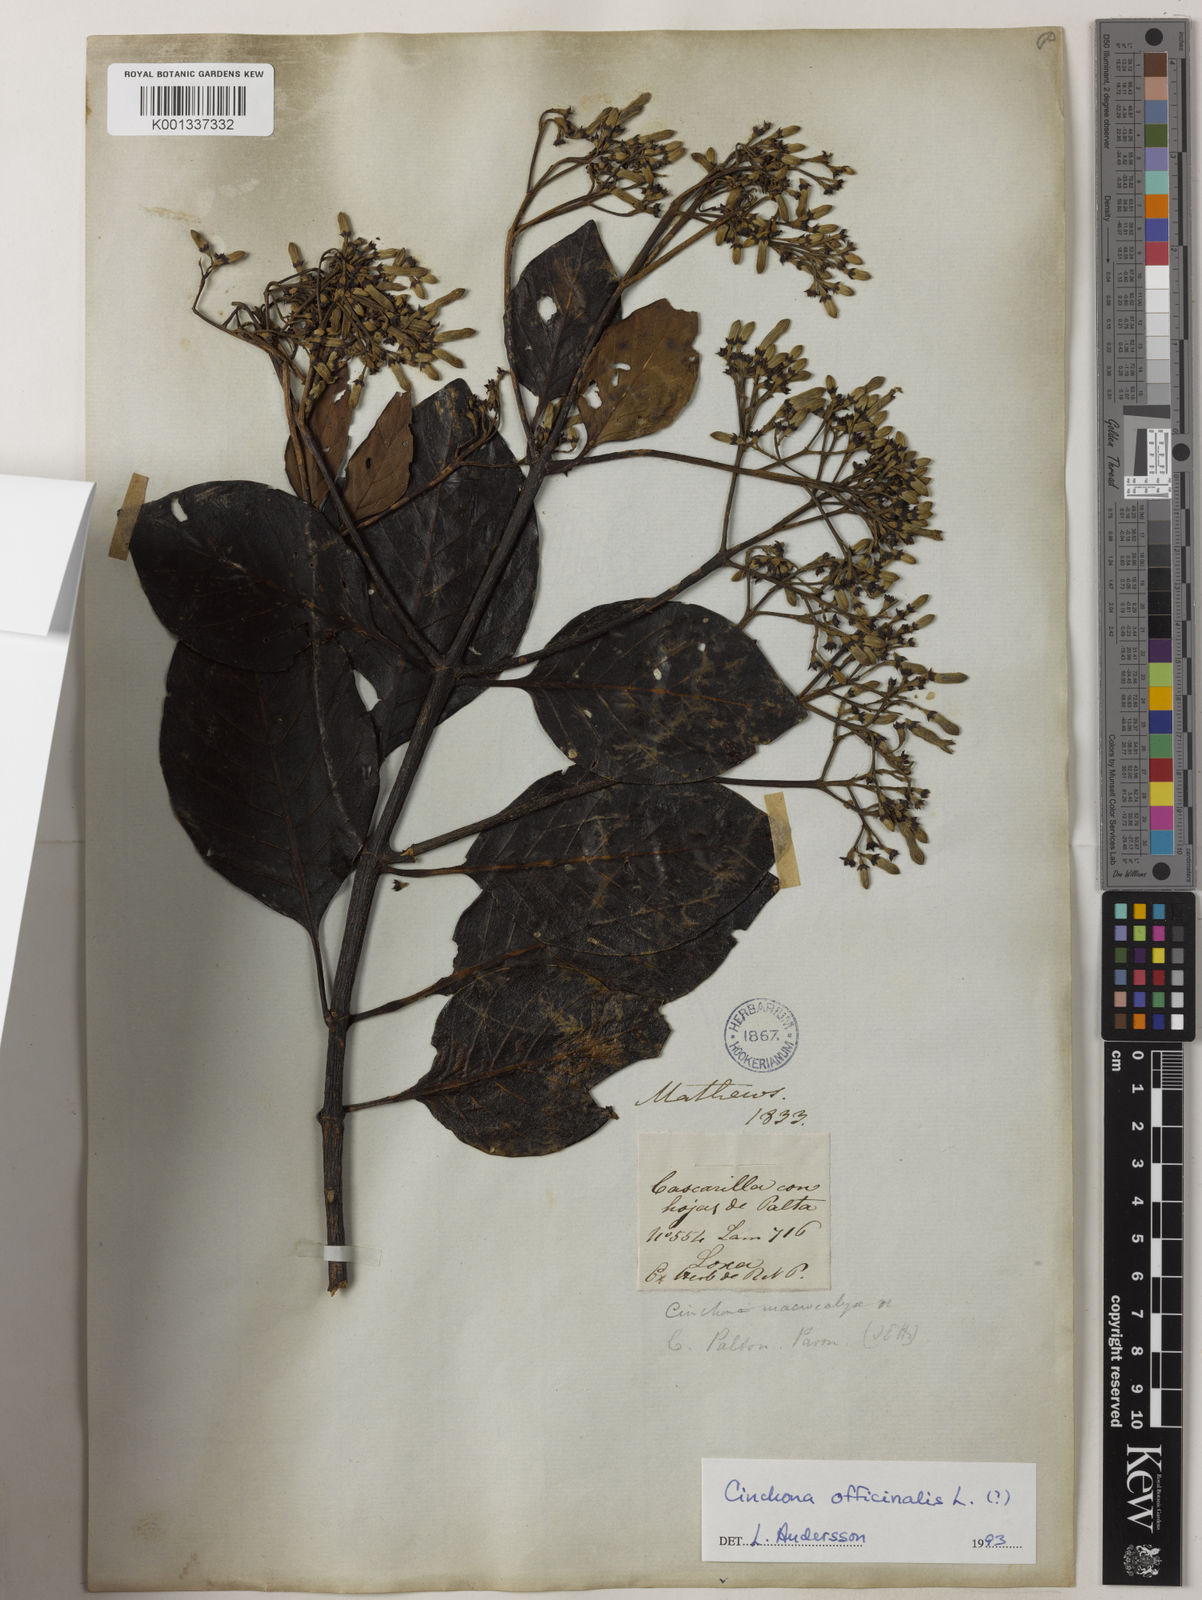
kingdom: Plantae
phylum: Tracheophyta
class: Magnoliopsida
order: Gentianales
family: Rubiaceae
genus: Cinchona
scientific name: Cinchona officinalis
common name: Lojabark
